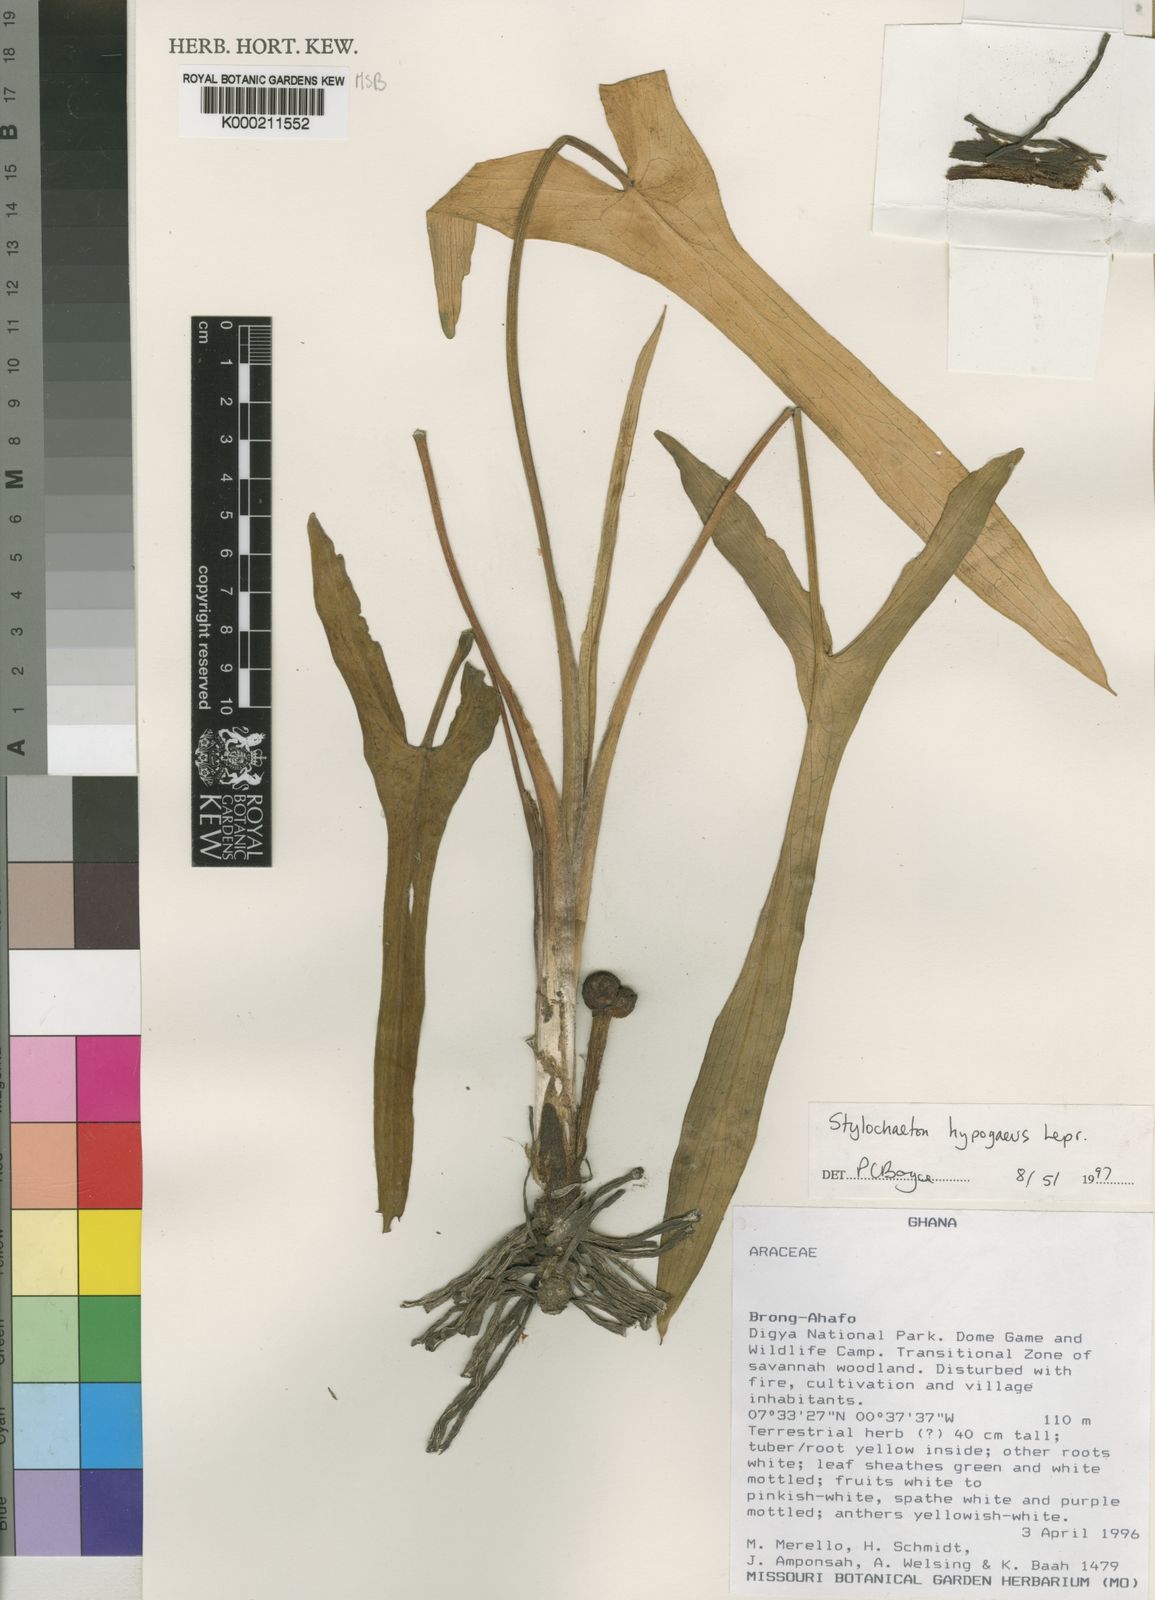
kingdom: Plantae
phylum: Tracheophyta
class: Liliopsida
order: Alismatales
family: Araceae
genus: Stylochaeton
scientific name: Stylochaeton
